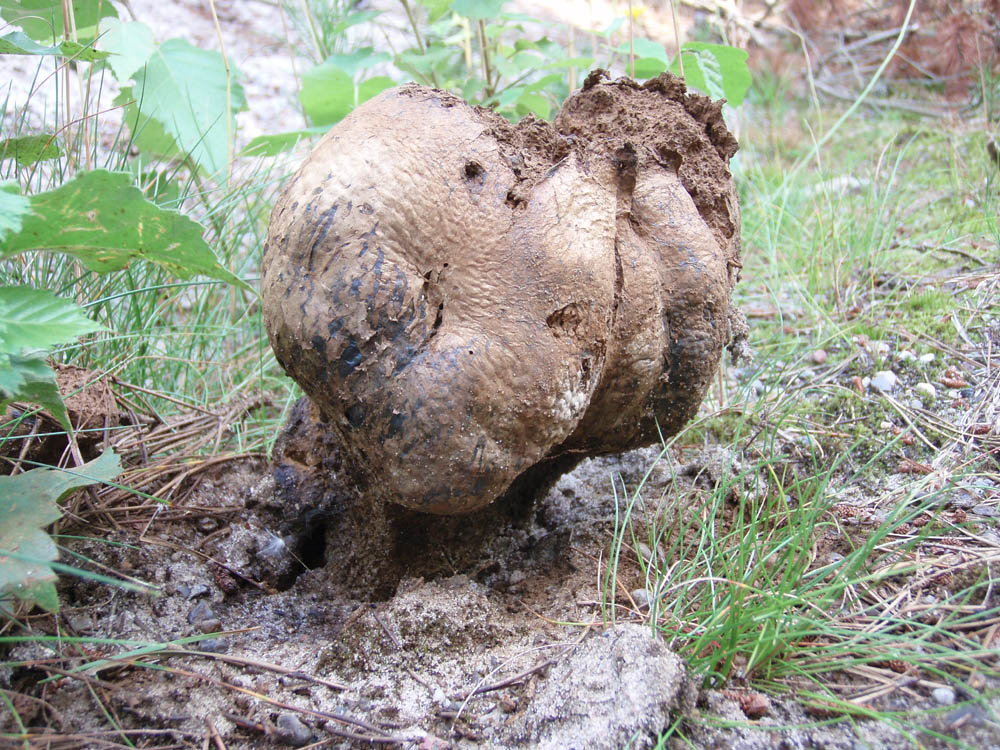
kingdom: Fungi
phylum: Basidiomycota
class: Agaricomycetes
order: Boletales
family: Sclerodermataceae
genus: Pisolithus
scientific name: Pisolithus capsulifer
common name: farvebold
